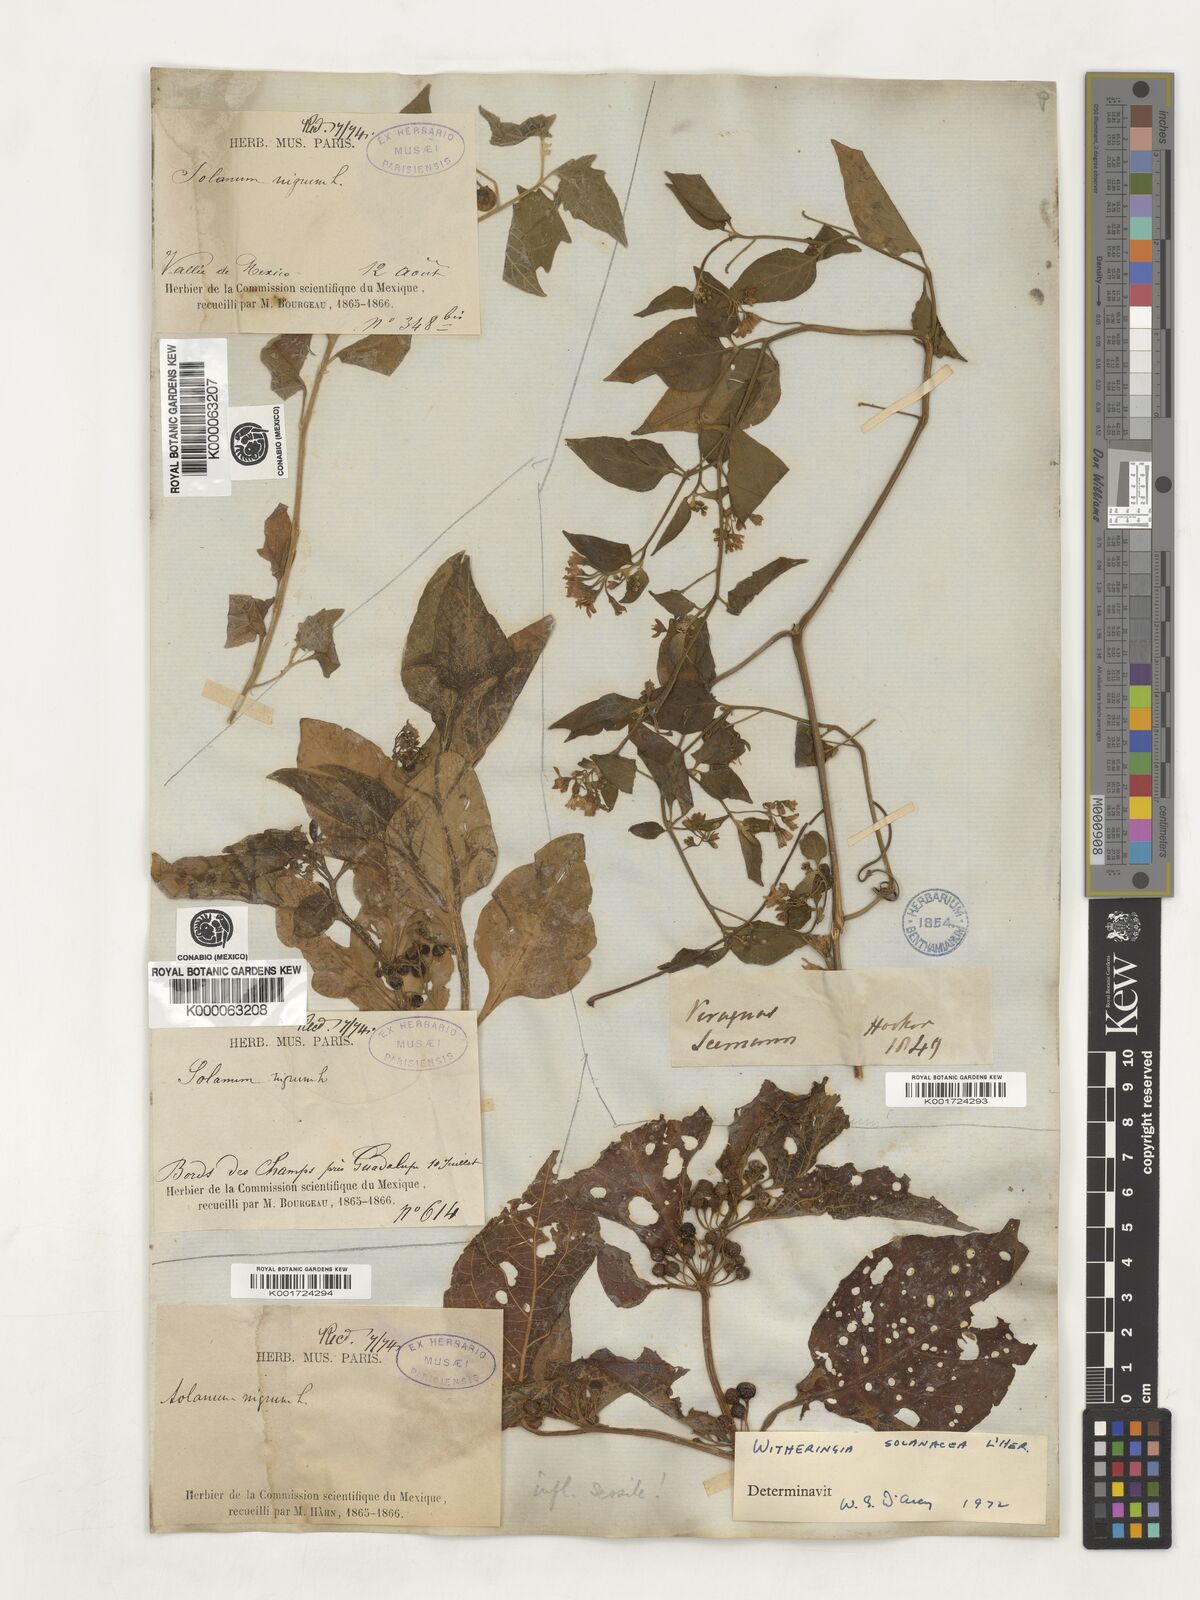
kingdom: Plantae
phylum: Tracheophyta
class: Magnoliopsida
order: Solanales
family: Solanaceae
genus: Witheringia
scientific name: Witheringia
